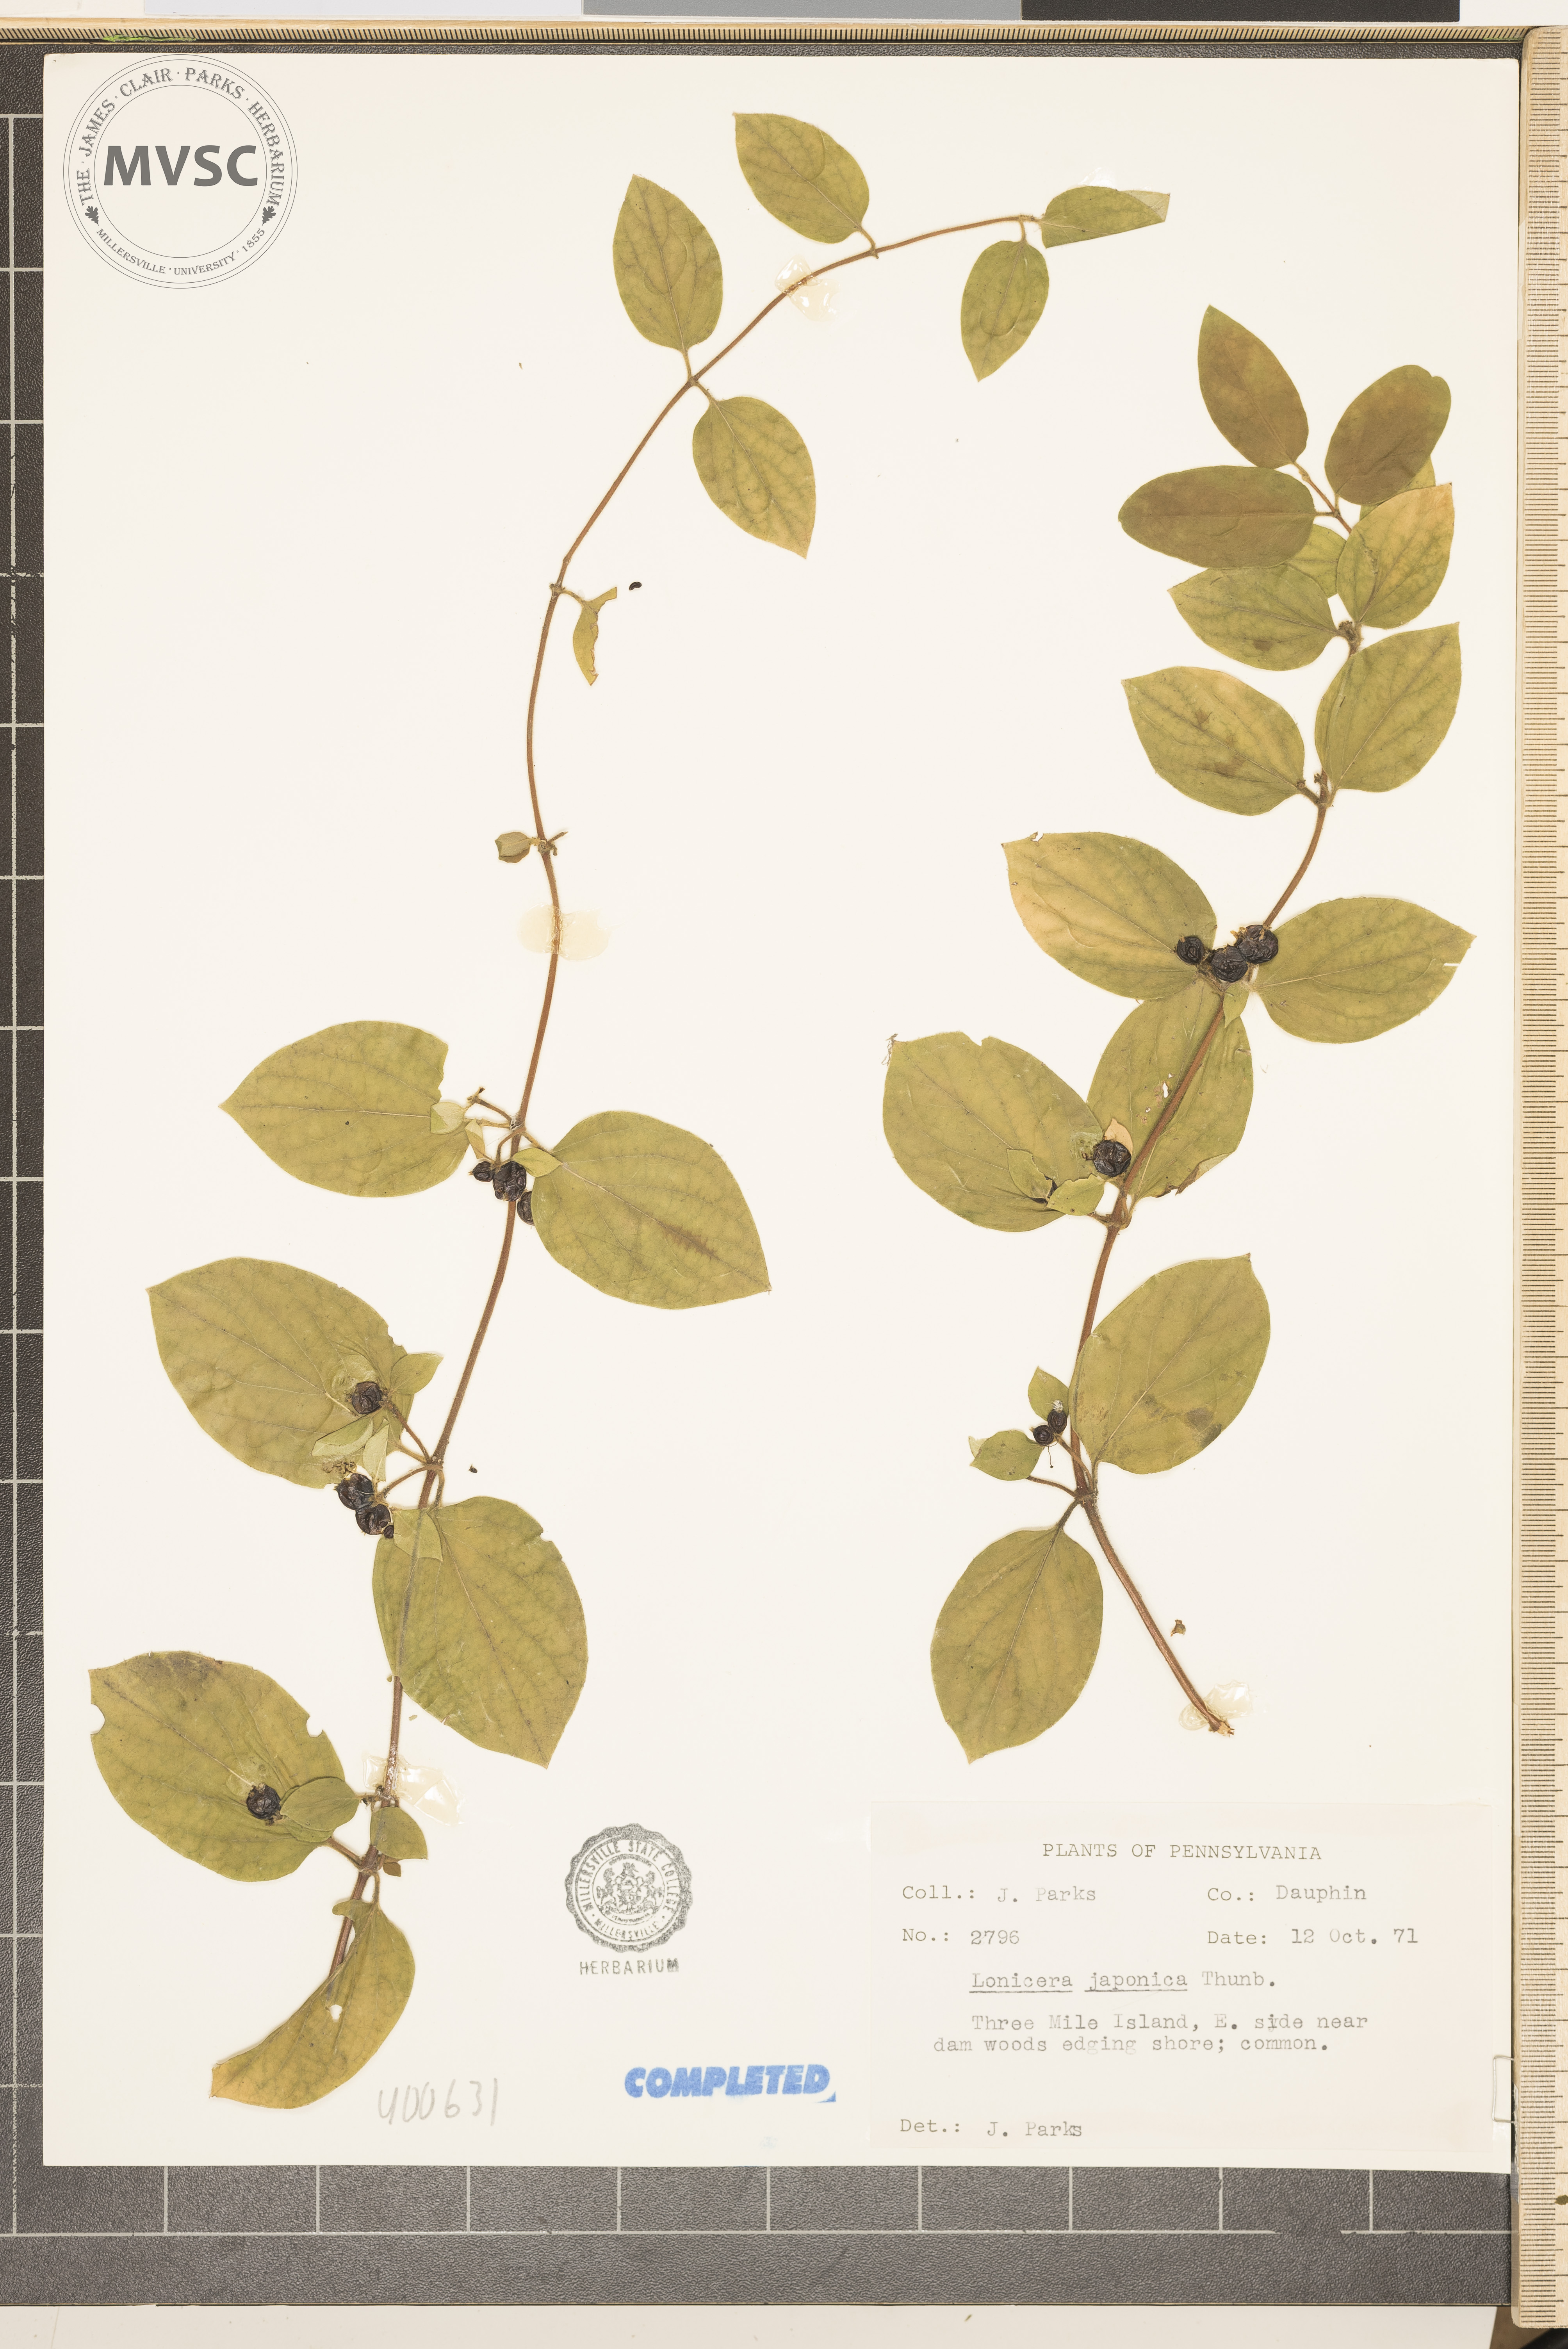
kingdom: Plantae
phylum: Tracheophyta
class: Magnoliopsida
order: Dipsacales
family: Caprifoliaceae
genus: Lonicera
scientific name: Lonicera japonica
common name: Japanese honeysuckle
